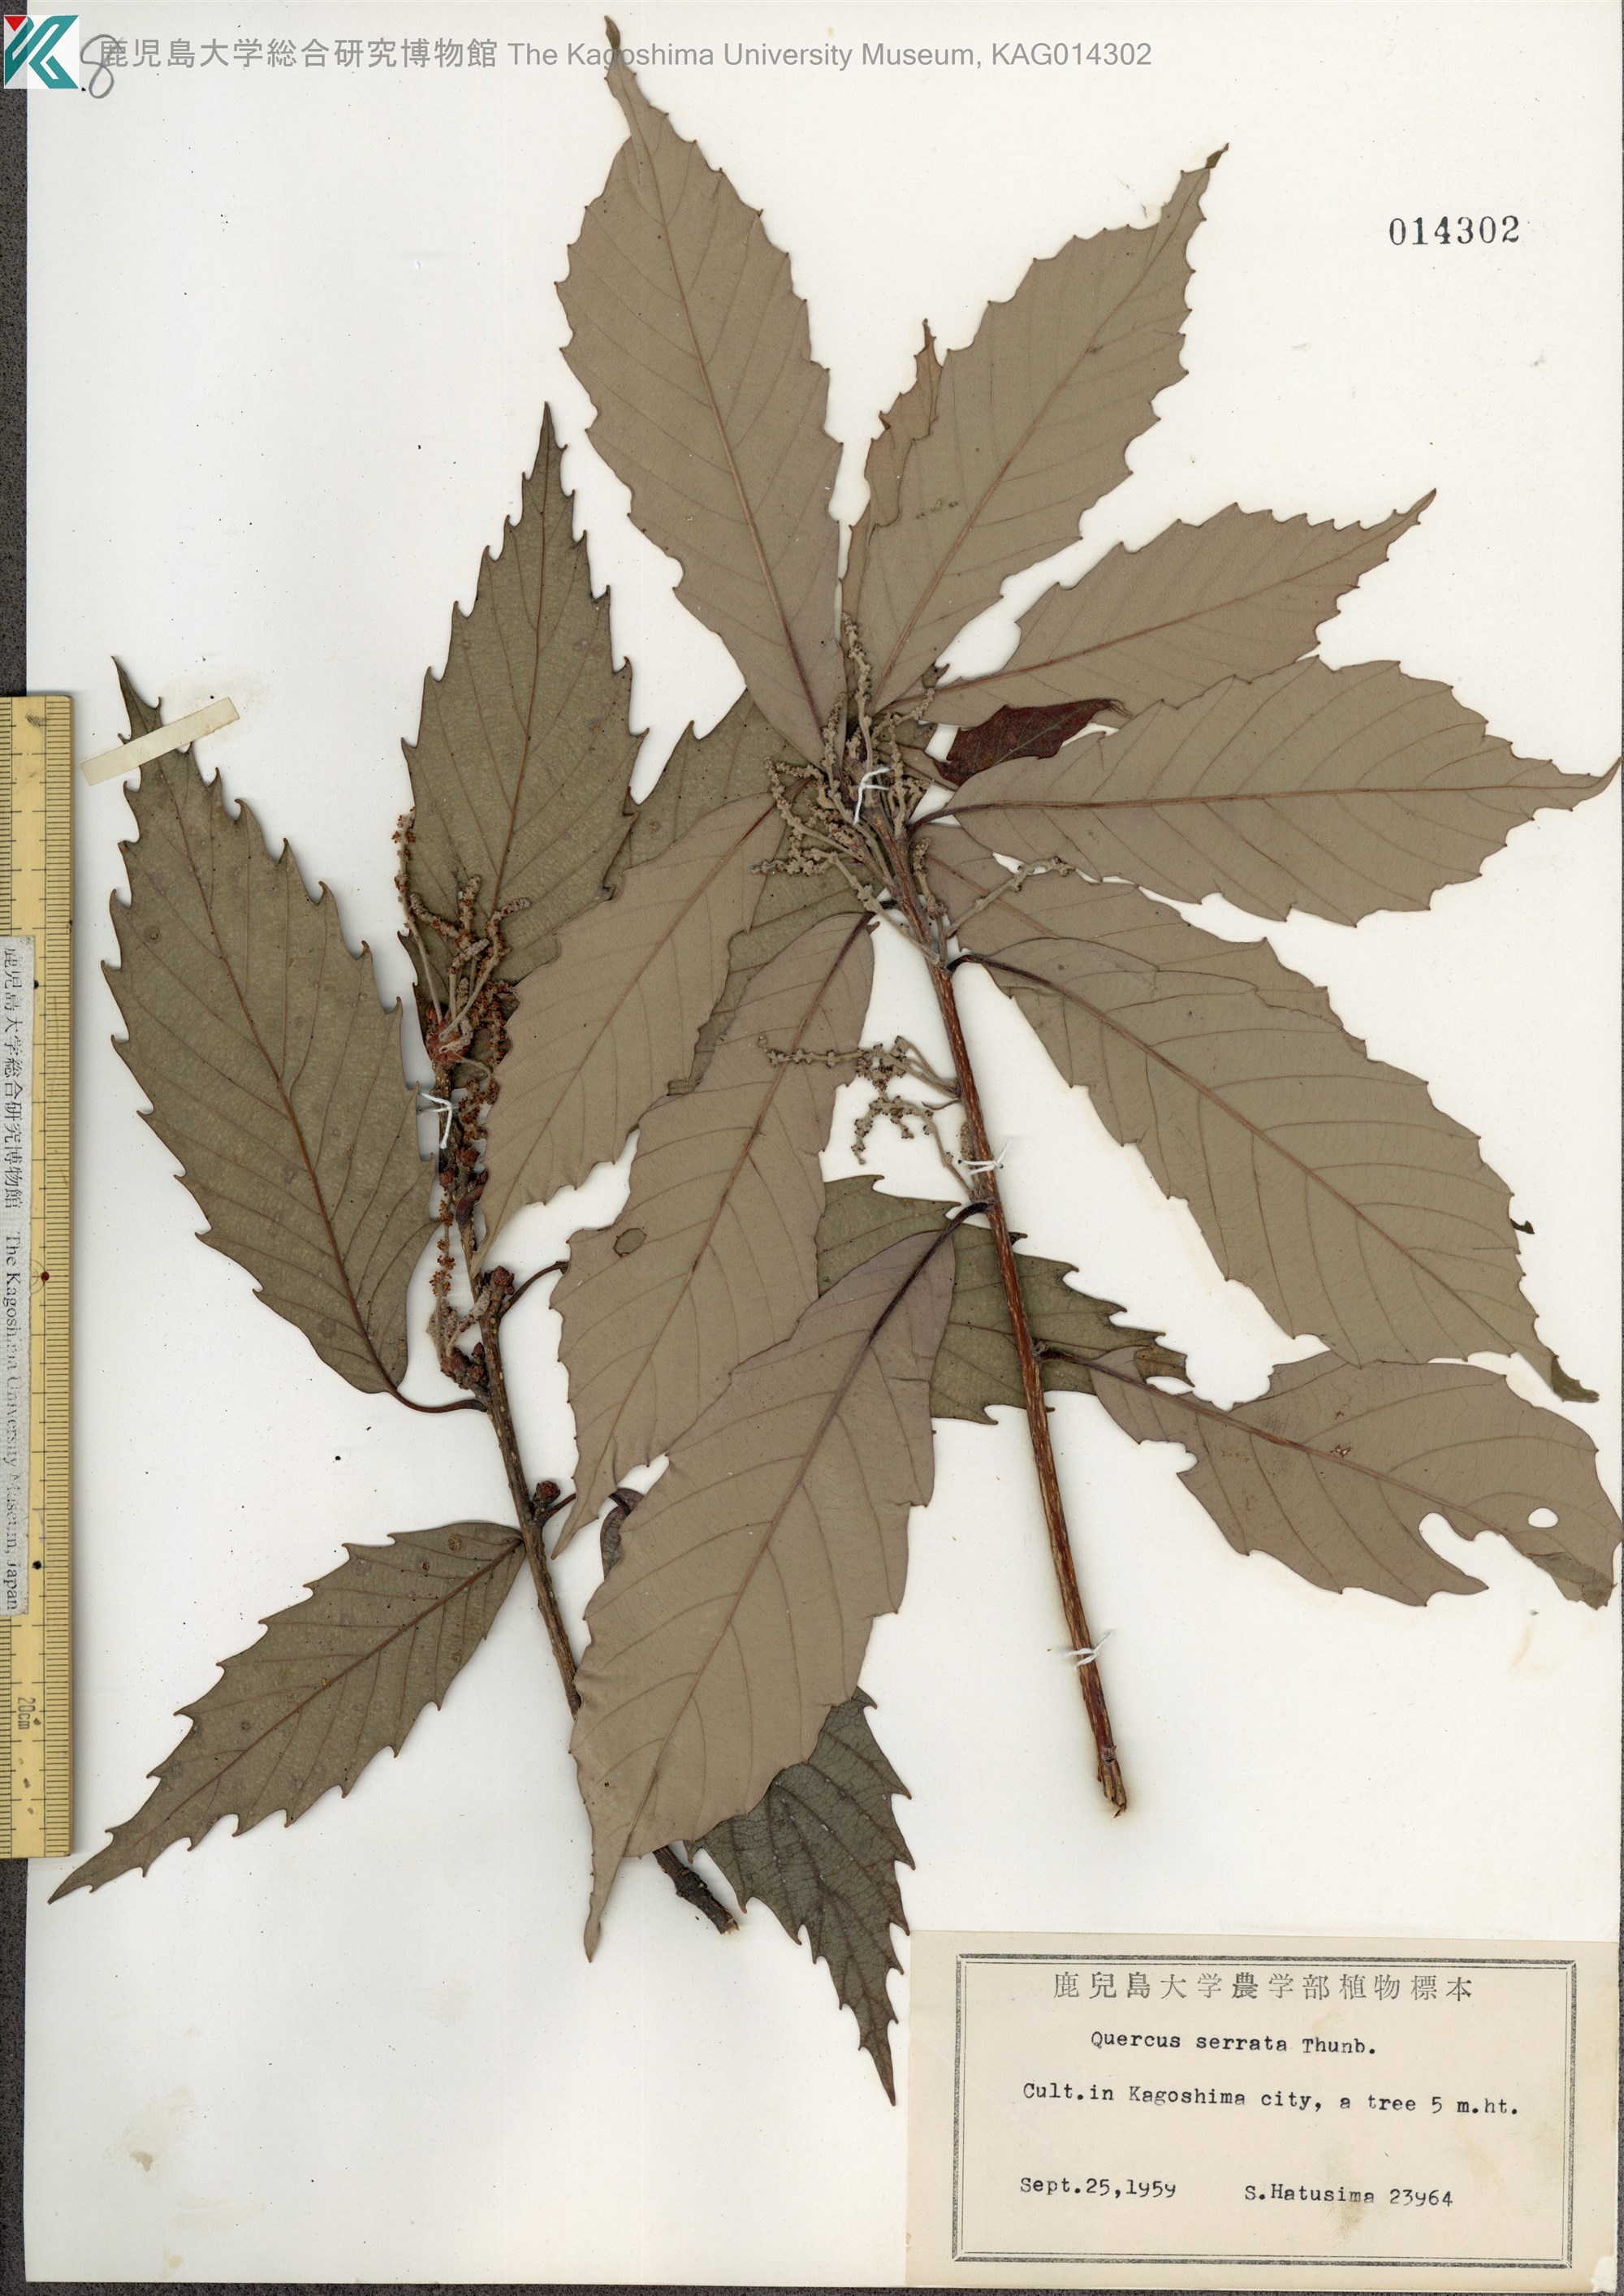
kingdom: Plantae
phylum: Tracheophyta
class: Magnoliopsida
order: Fagales
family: Fagaceae
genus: Quercus
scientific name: Quercus serrata
